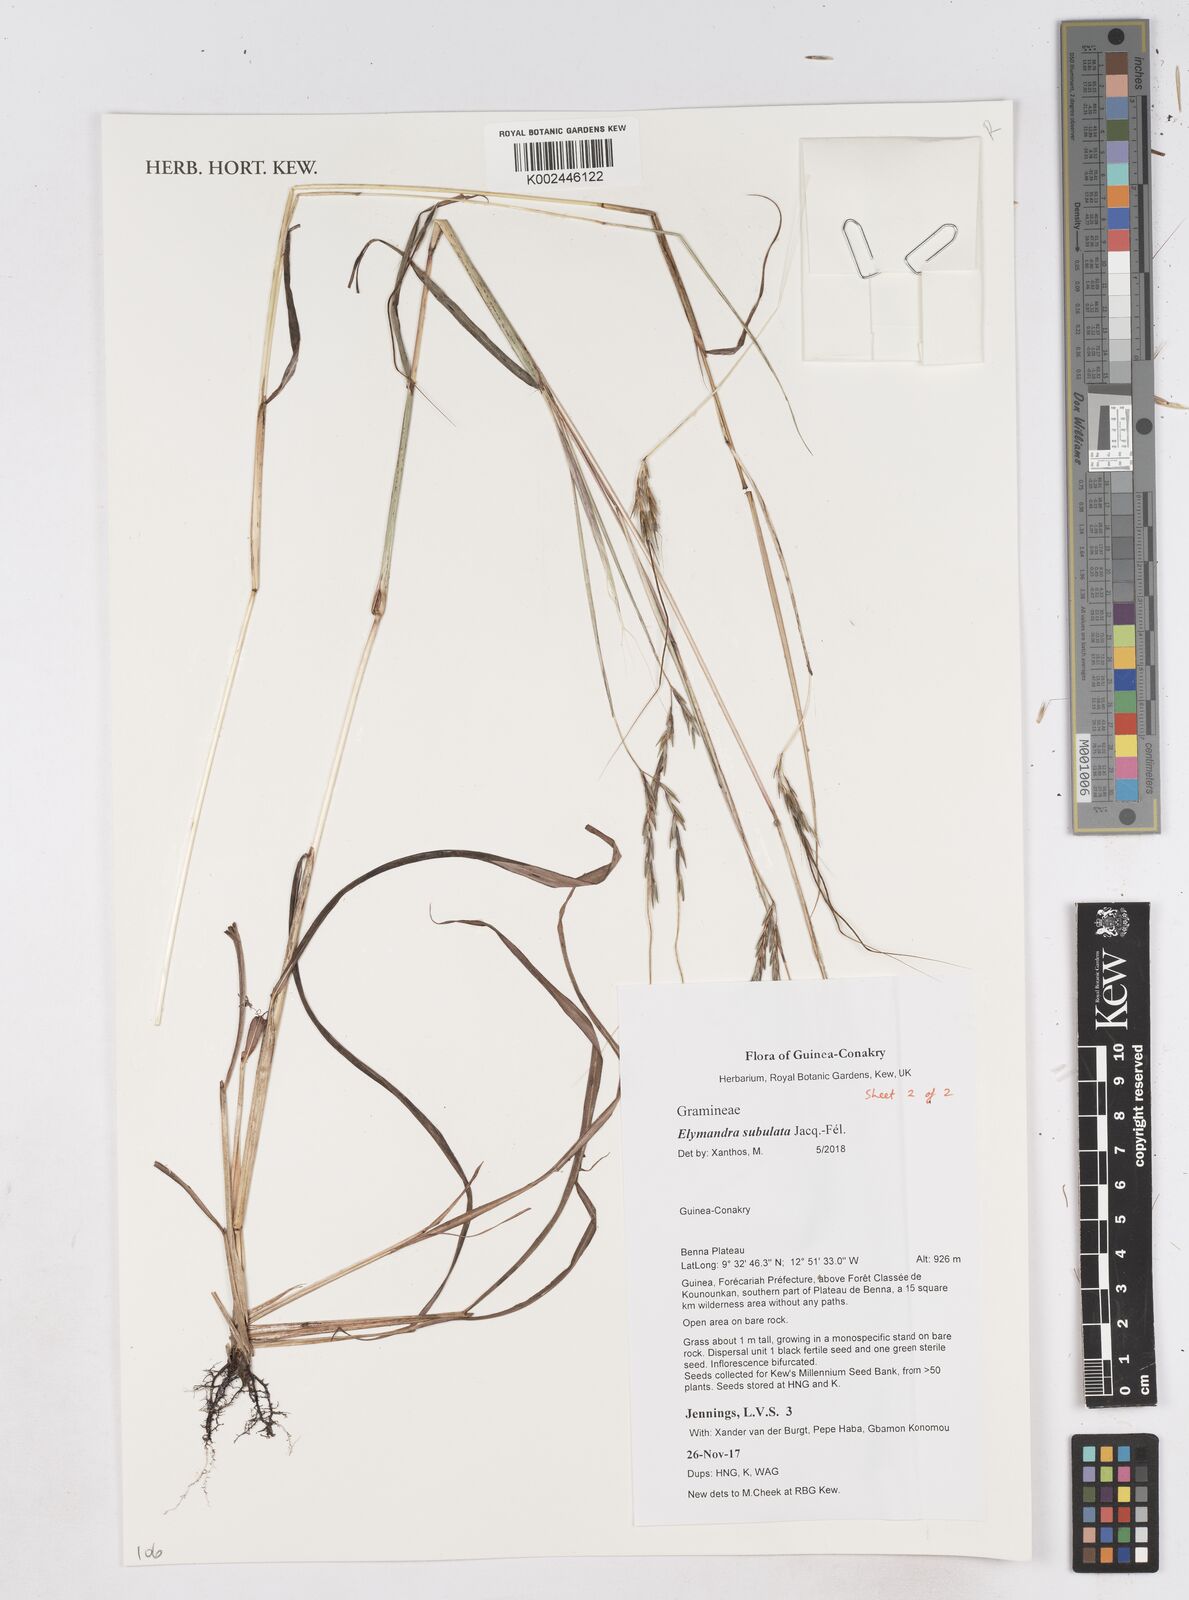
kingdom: Plantae
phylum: Tracheophyta
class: Liliopsida
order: Poales
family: Poaceae
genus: Elymandra
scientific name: Elymandra subulata
